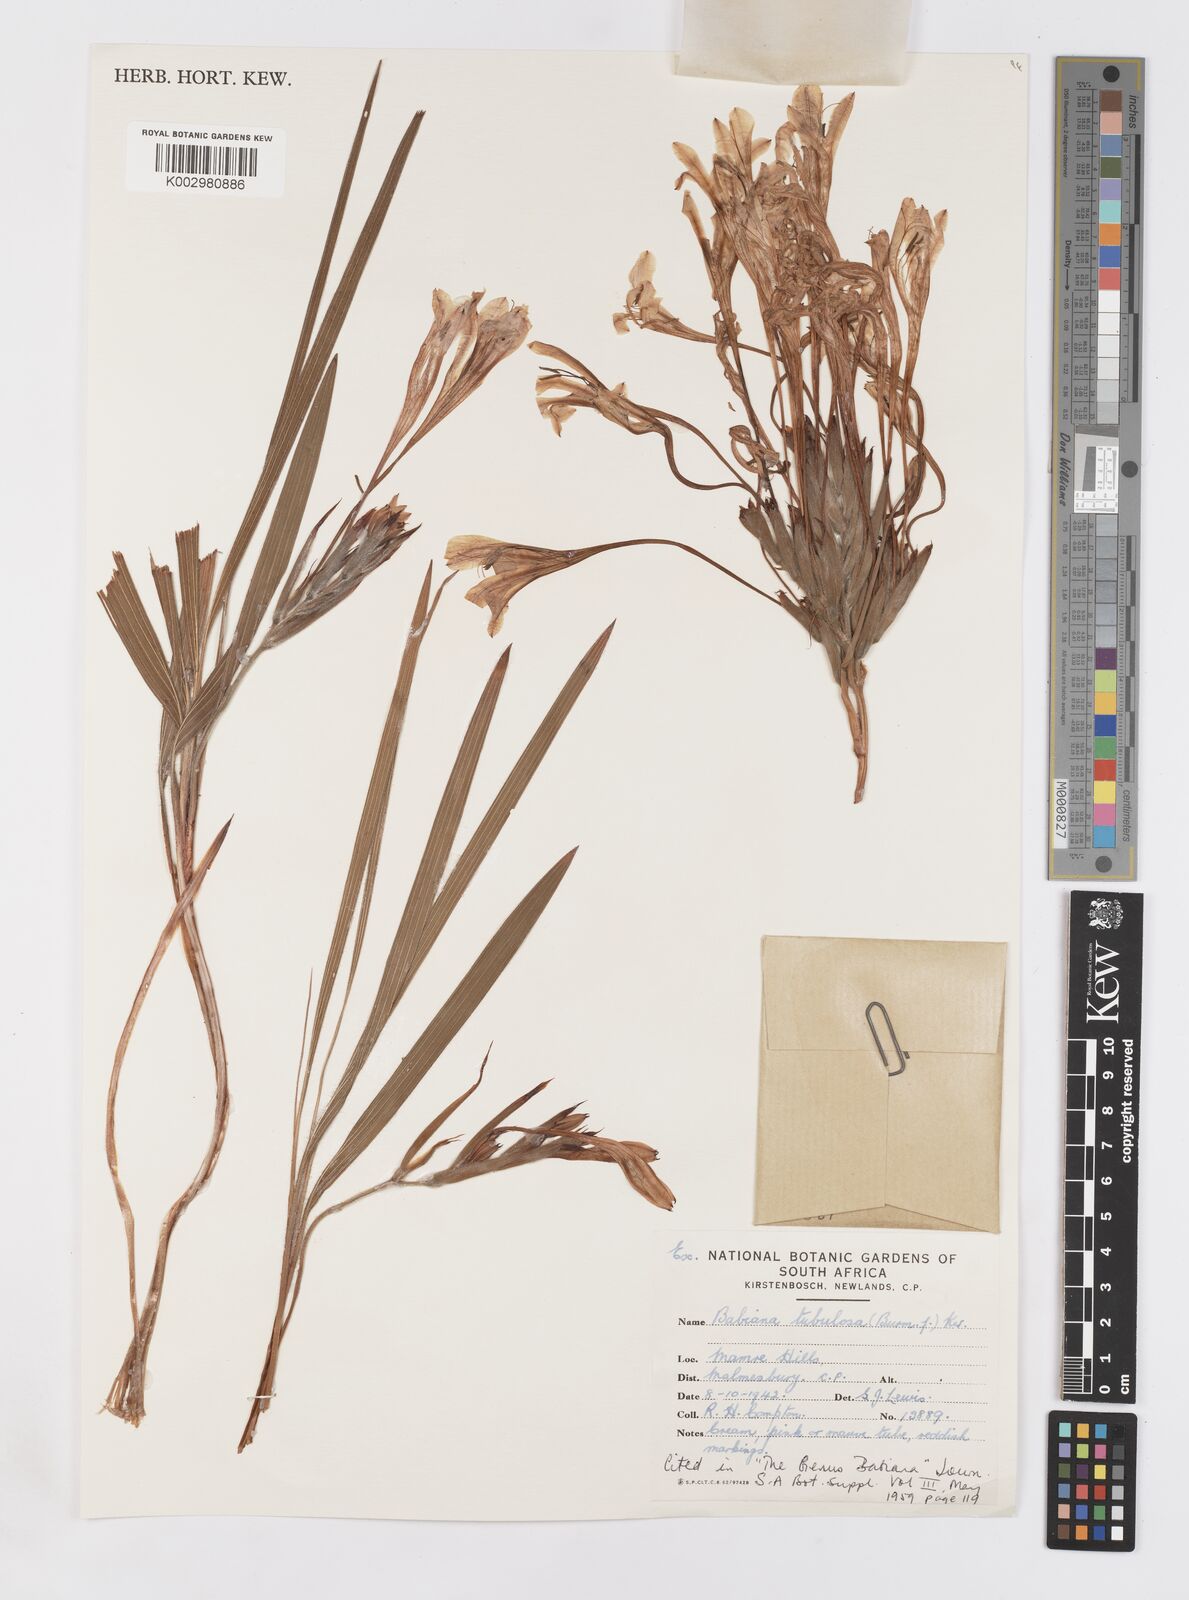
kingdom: Plantae
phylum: Tracheophyta
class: Liliopsida
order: Asparagales
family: Iridaceae
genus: Babiana
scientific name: Babiana tubulosa
